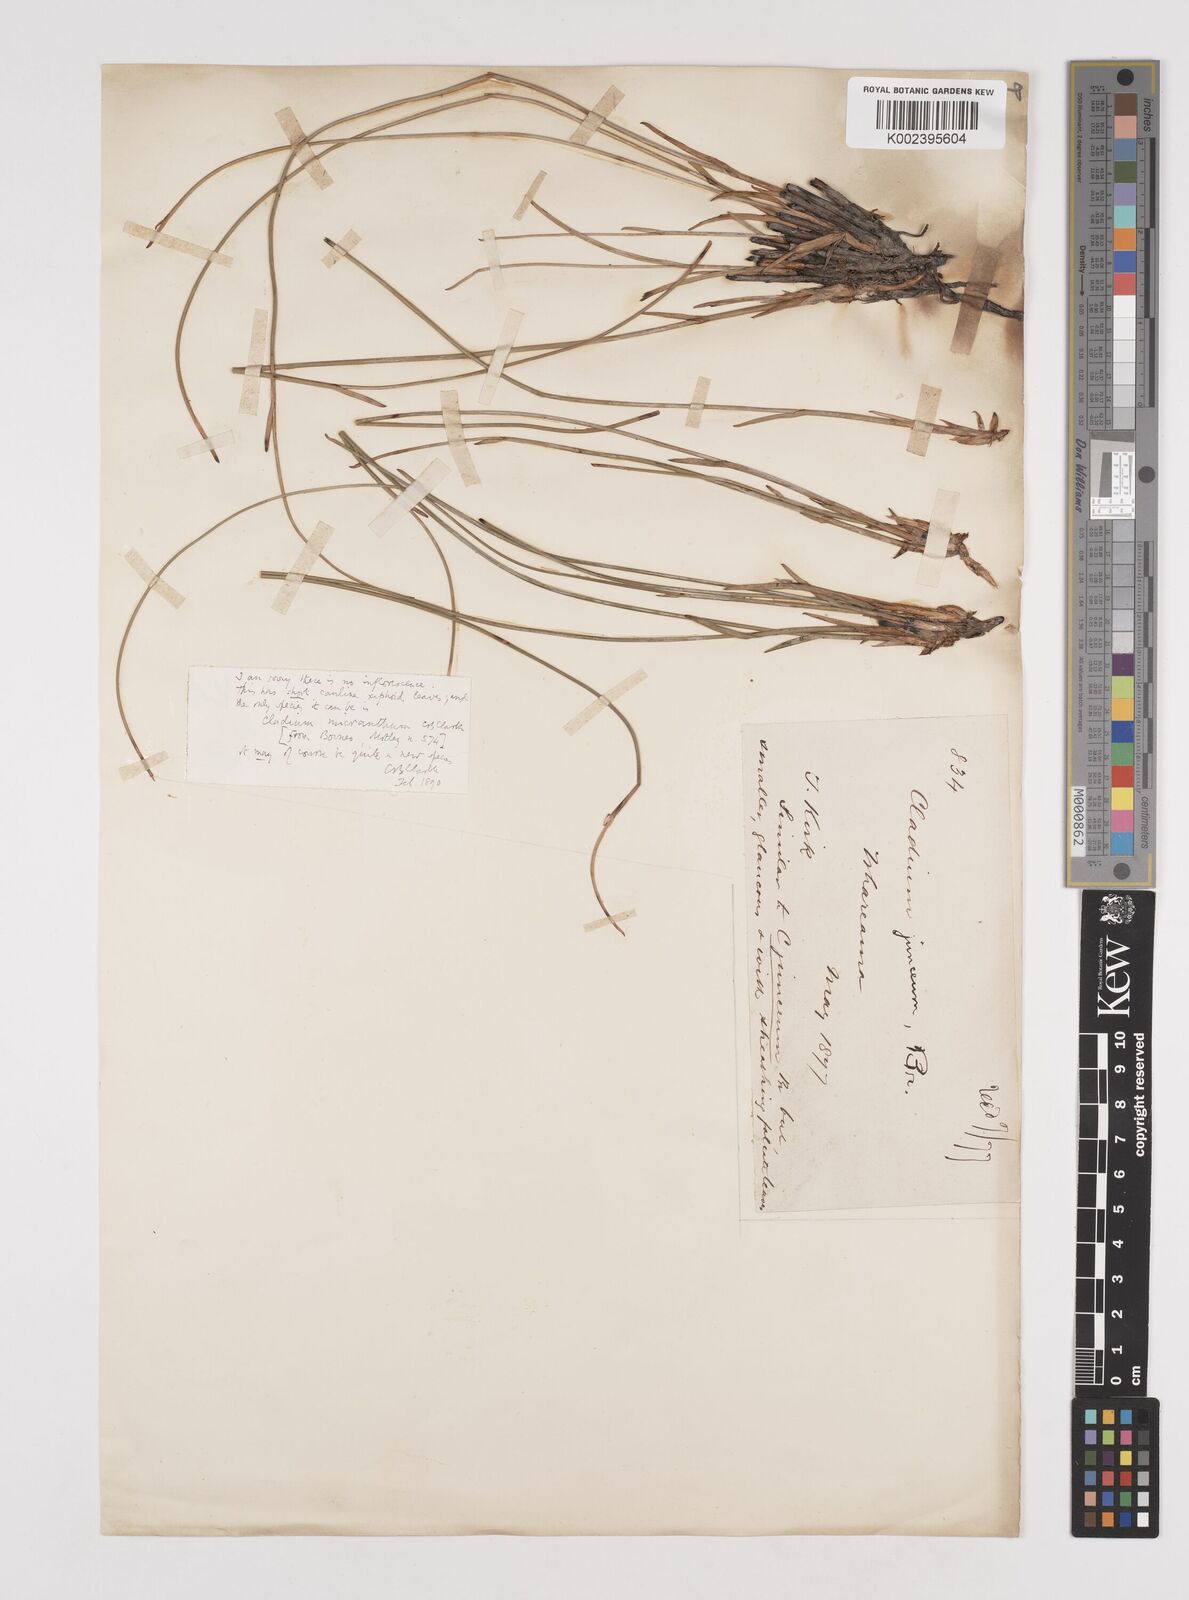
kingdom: Plantae
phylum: Tracheophyta
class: Liliopsida
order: Poales
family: Cyperaceae
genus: Machaerina
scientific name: Machaerina disticha
